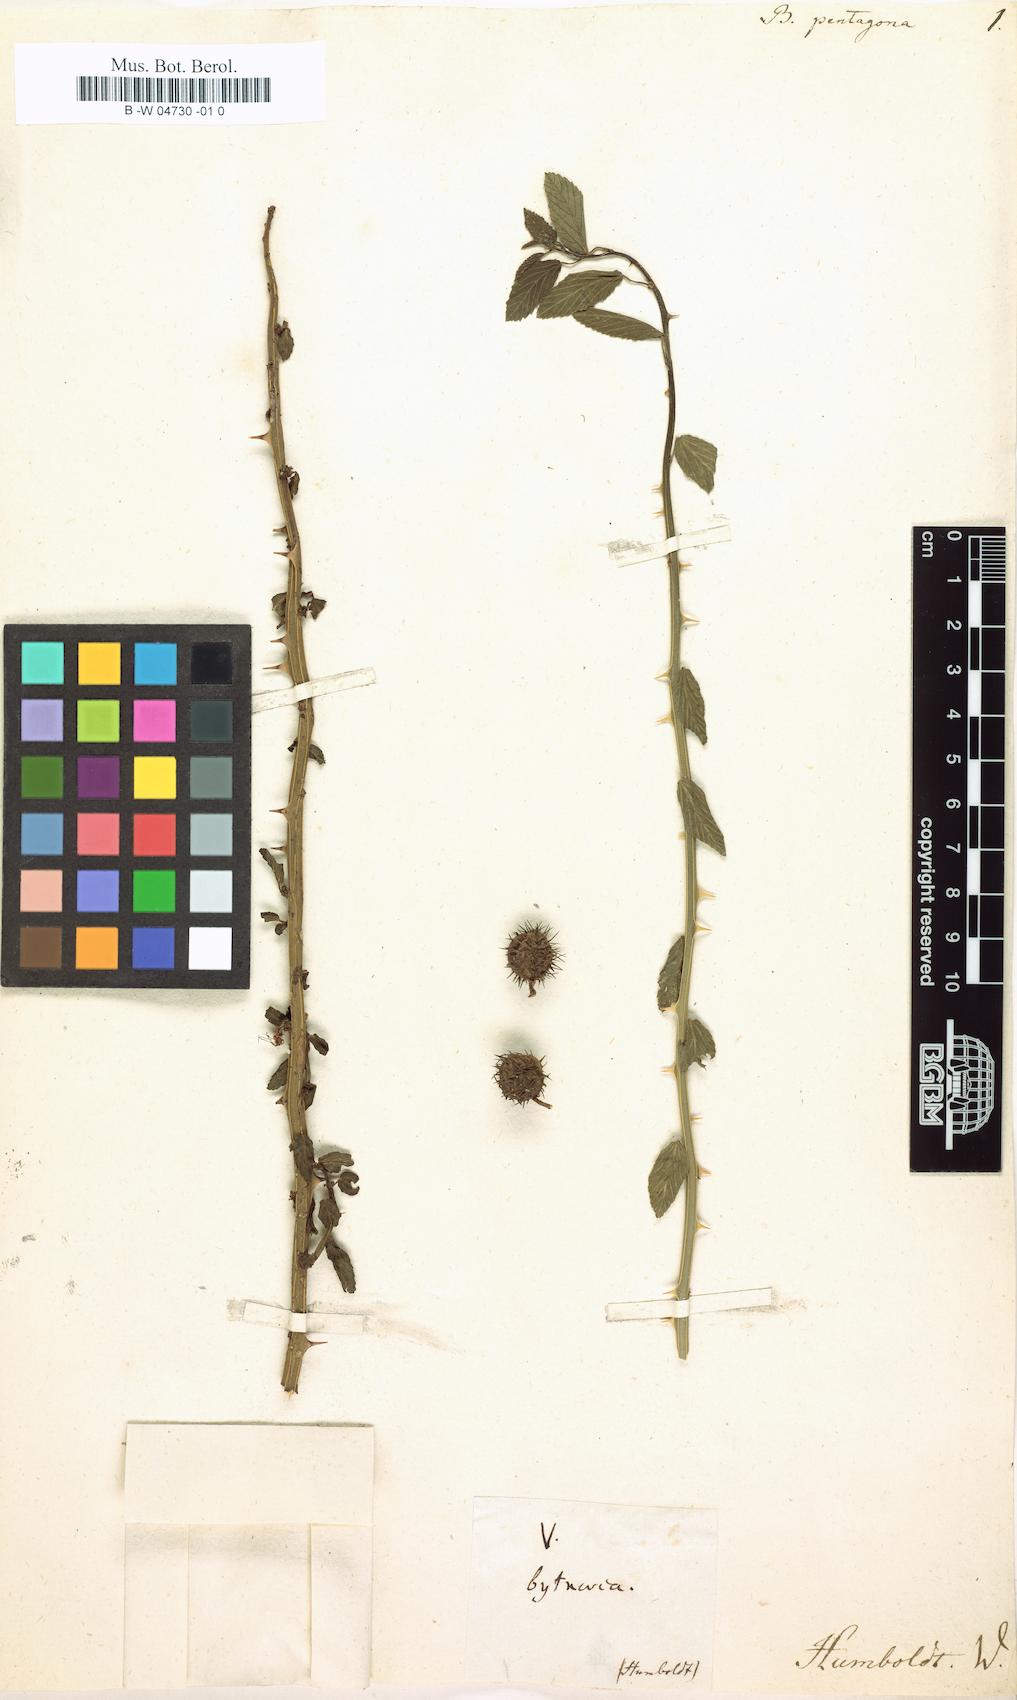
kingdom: Plantae
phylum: Tracheophyta
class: Magnoliopsida
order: Malvales
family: Malvaceae
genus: Byttneria
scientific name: Byttneria pentagona
